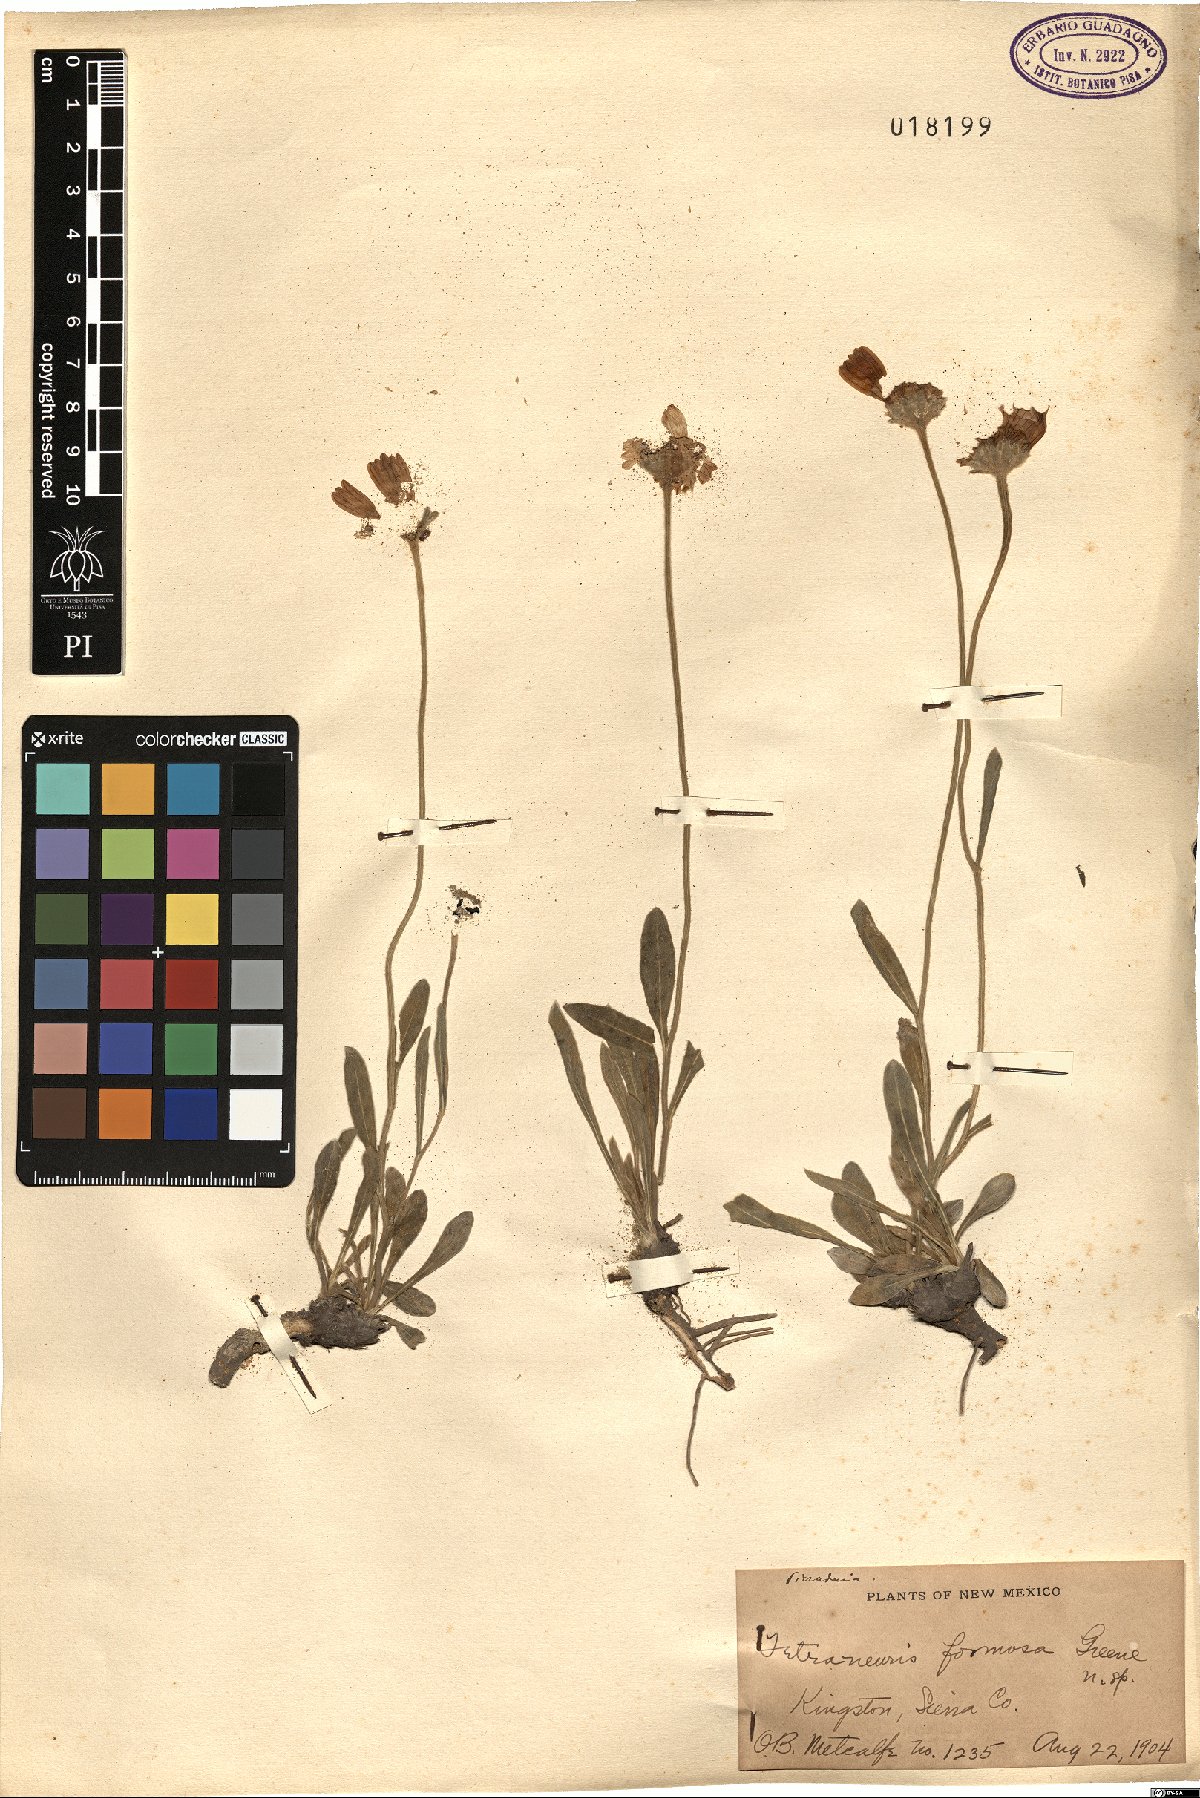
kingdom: Plantae
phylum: Tracheophyta
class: Magnoliopsida
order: Asterales
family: Asteraceae
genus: Tetraneuris
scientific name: Tetraneuris argentea
